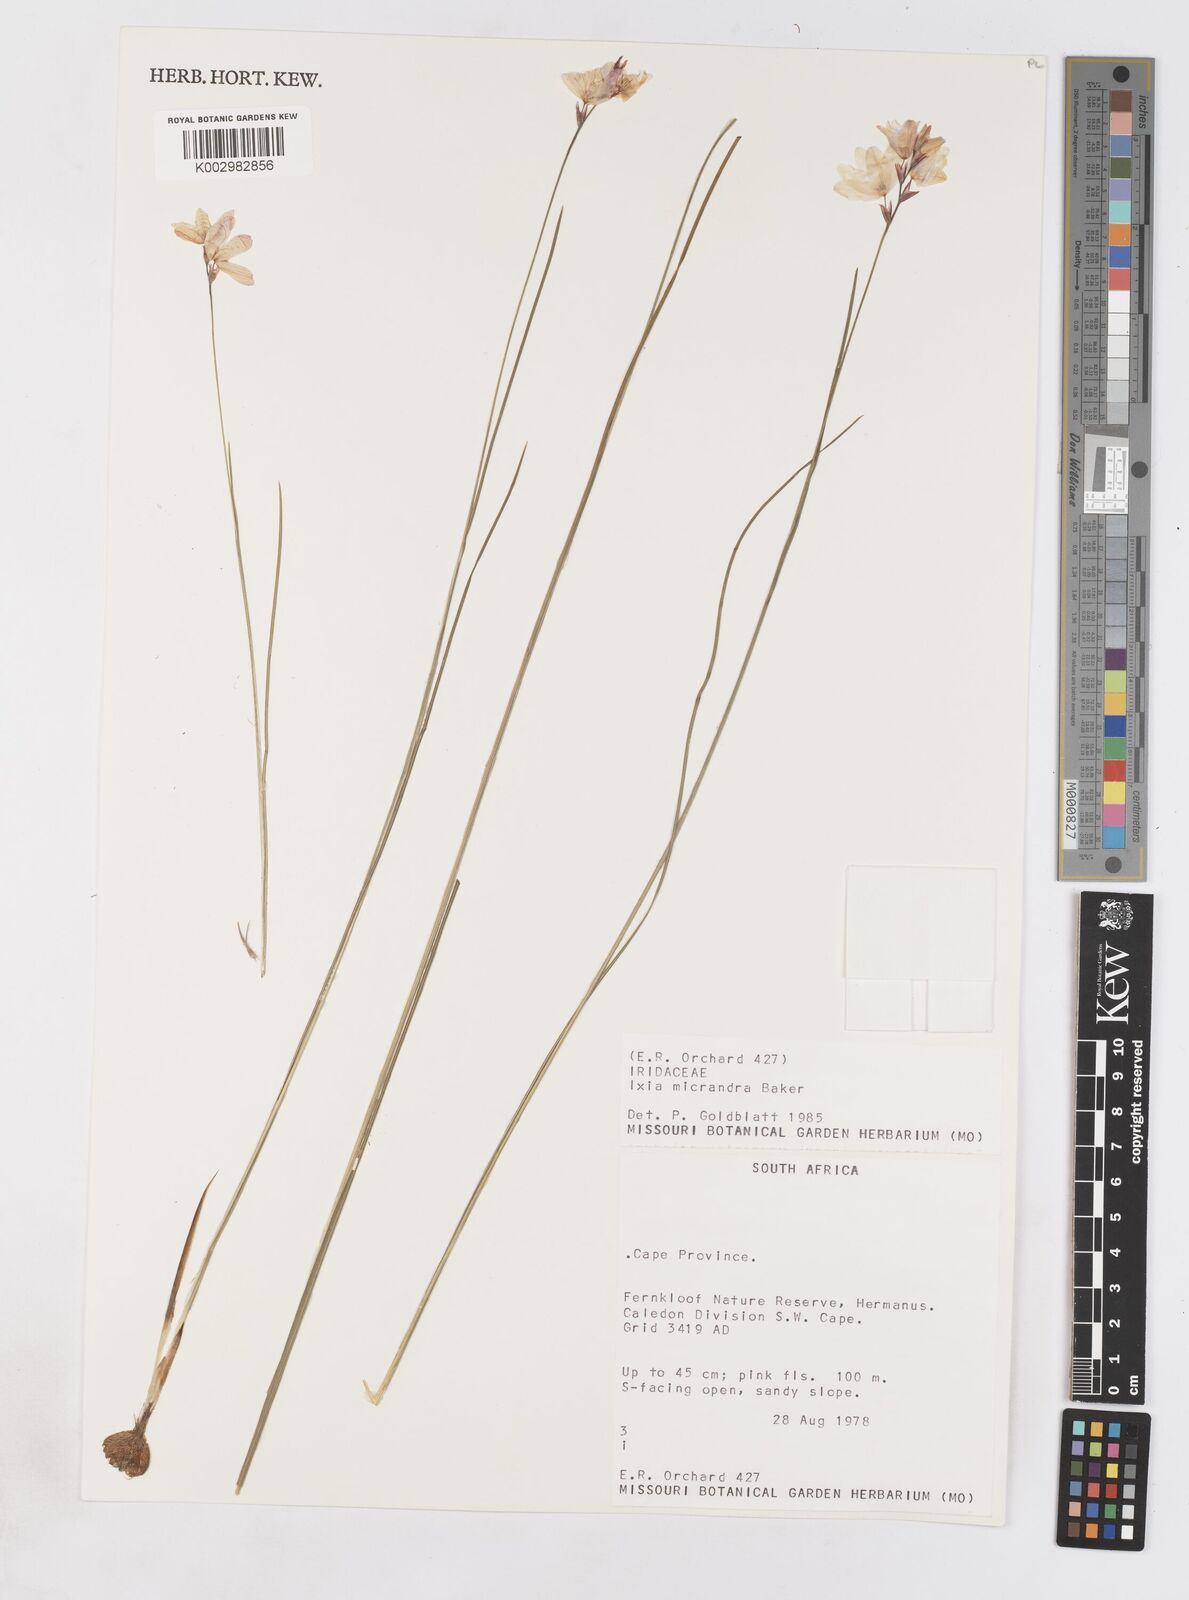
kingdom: Plantae
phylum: Tracheophyta
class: Liliopsida
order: Asparagales
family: Iridaceae
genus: Ixia
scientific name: Ixia micrandra
